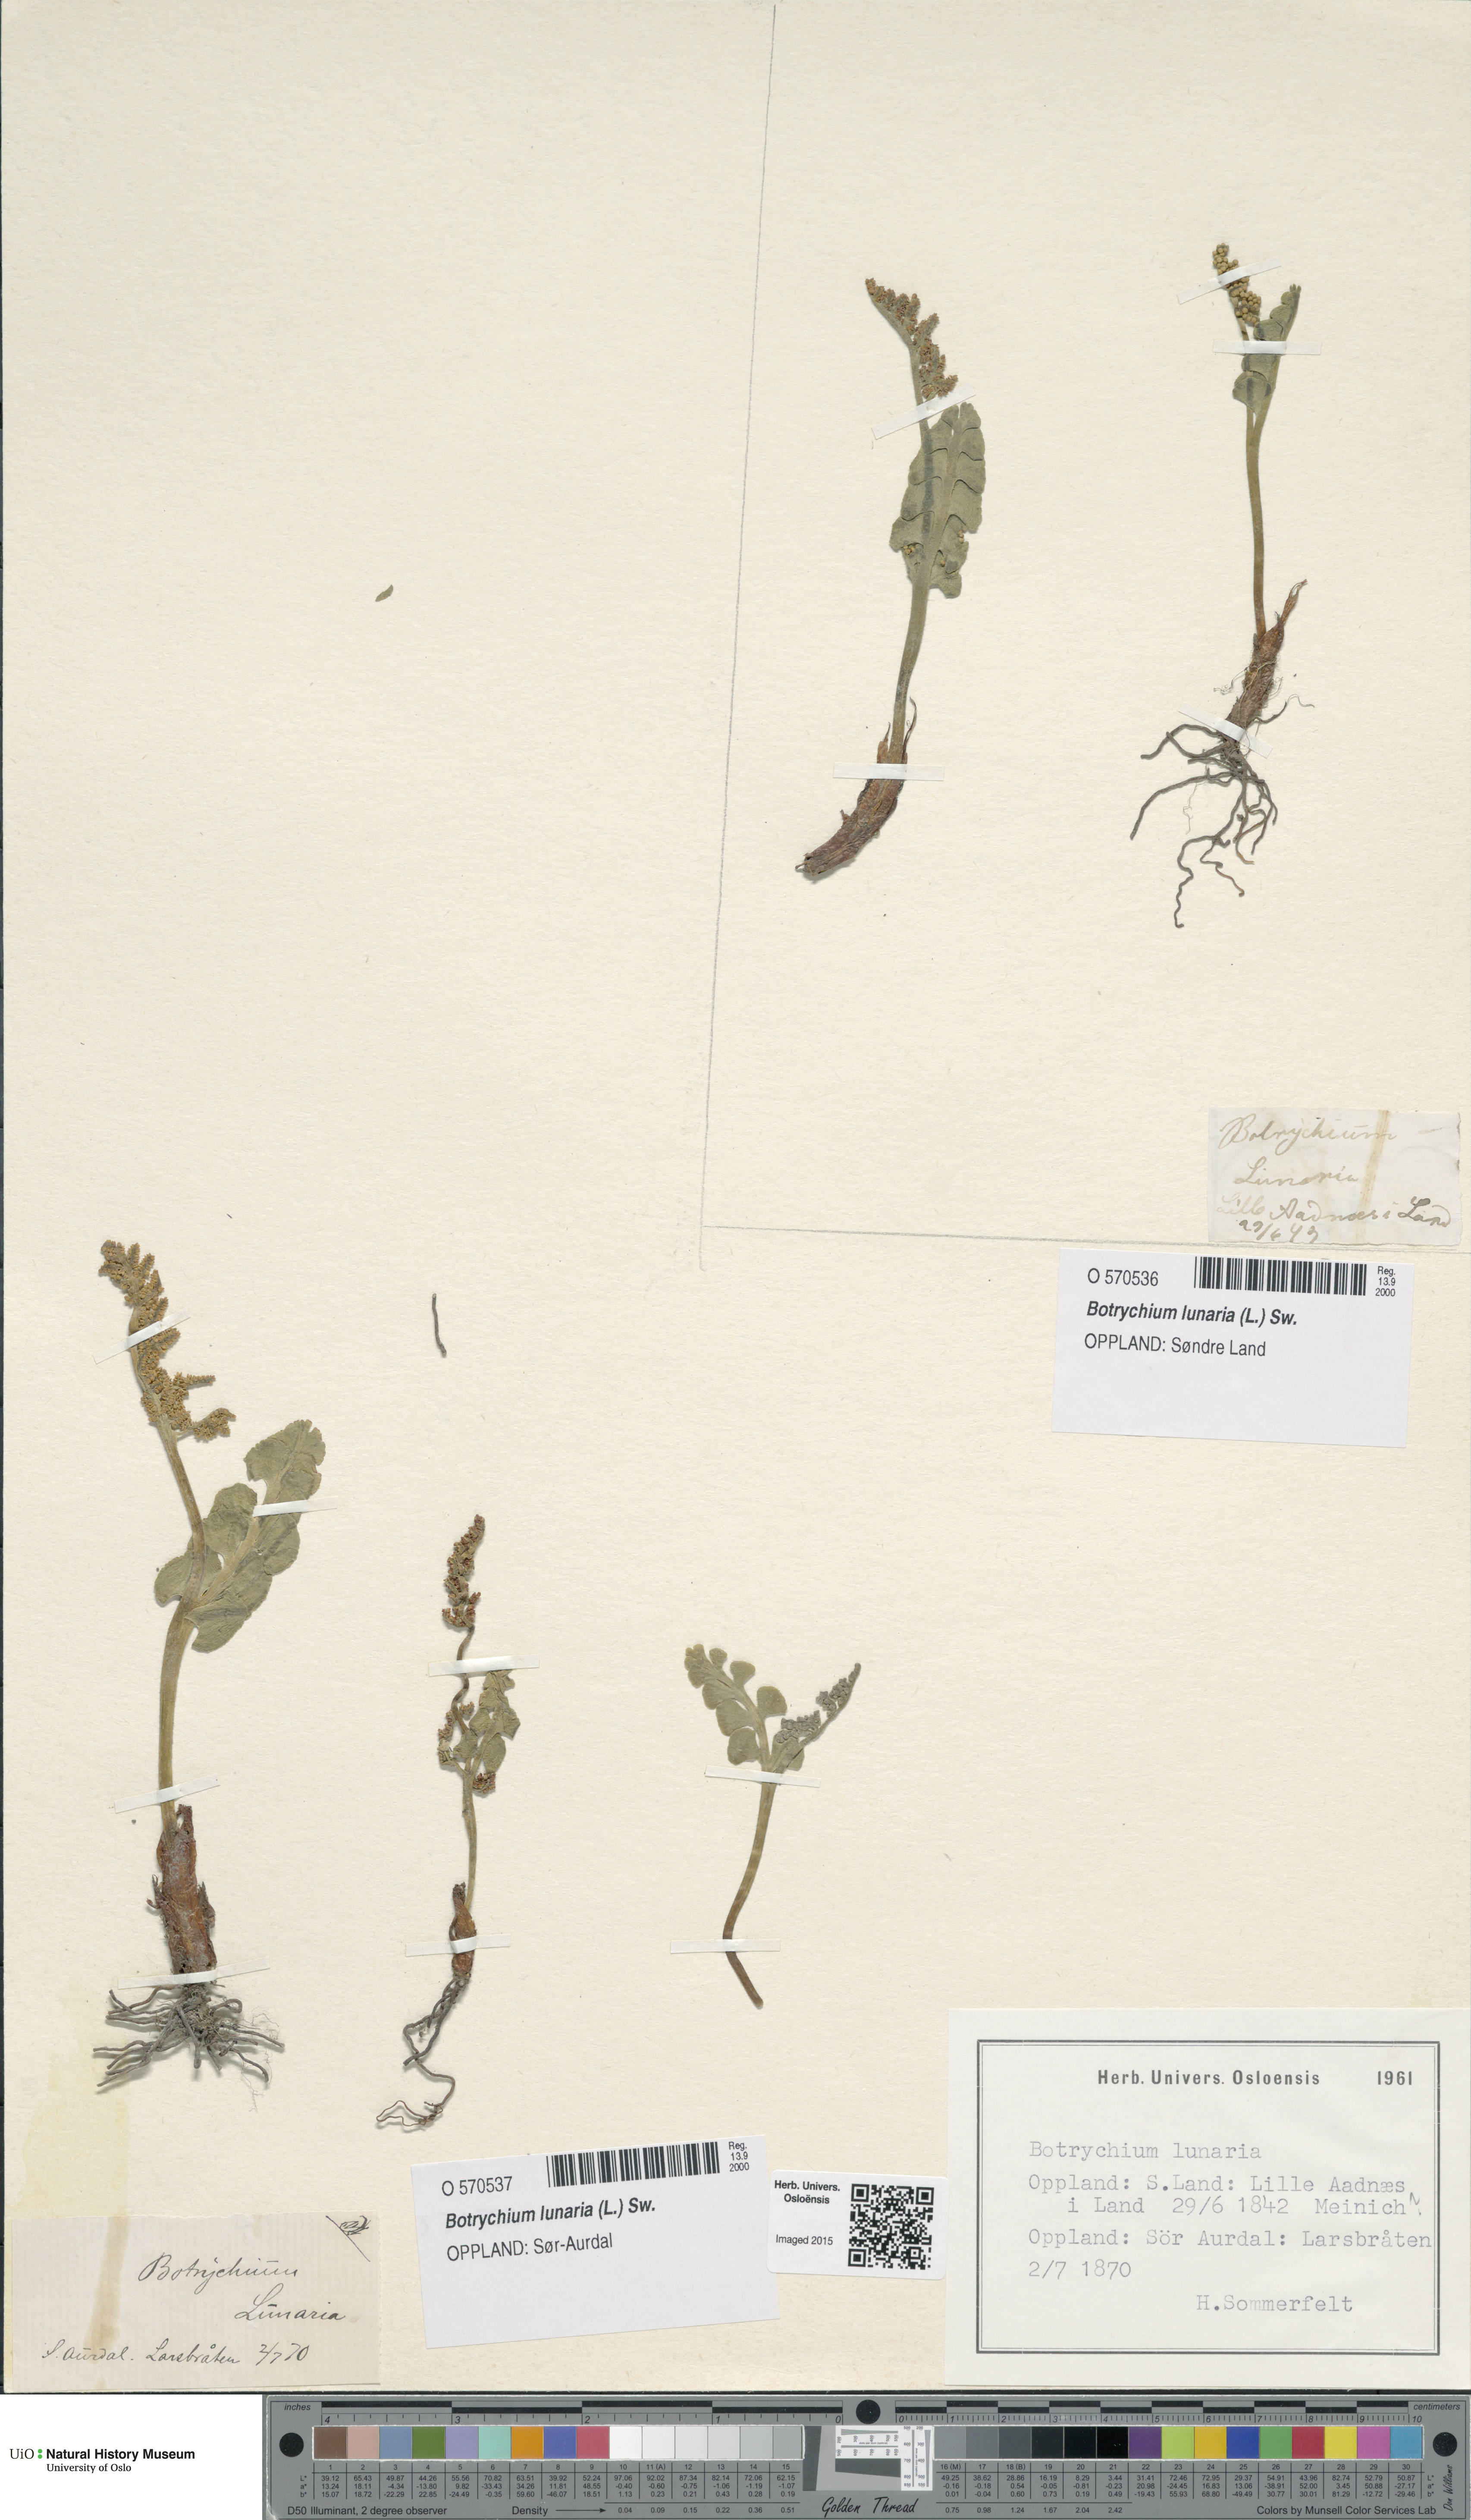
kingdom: Plantae
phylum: Tracheophyta
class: Polypodiopsida
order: Ophioglossales
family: Ophioglossaceae
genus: Botrychium
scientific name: Botrychium lunaria
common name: Moonwort
